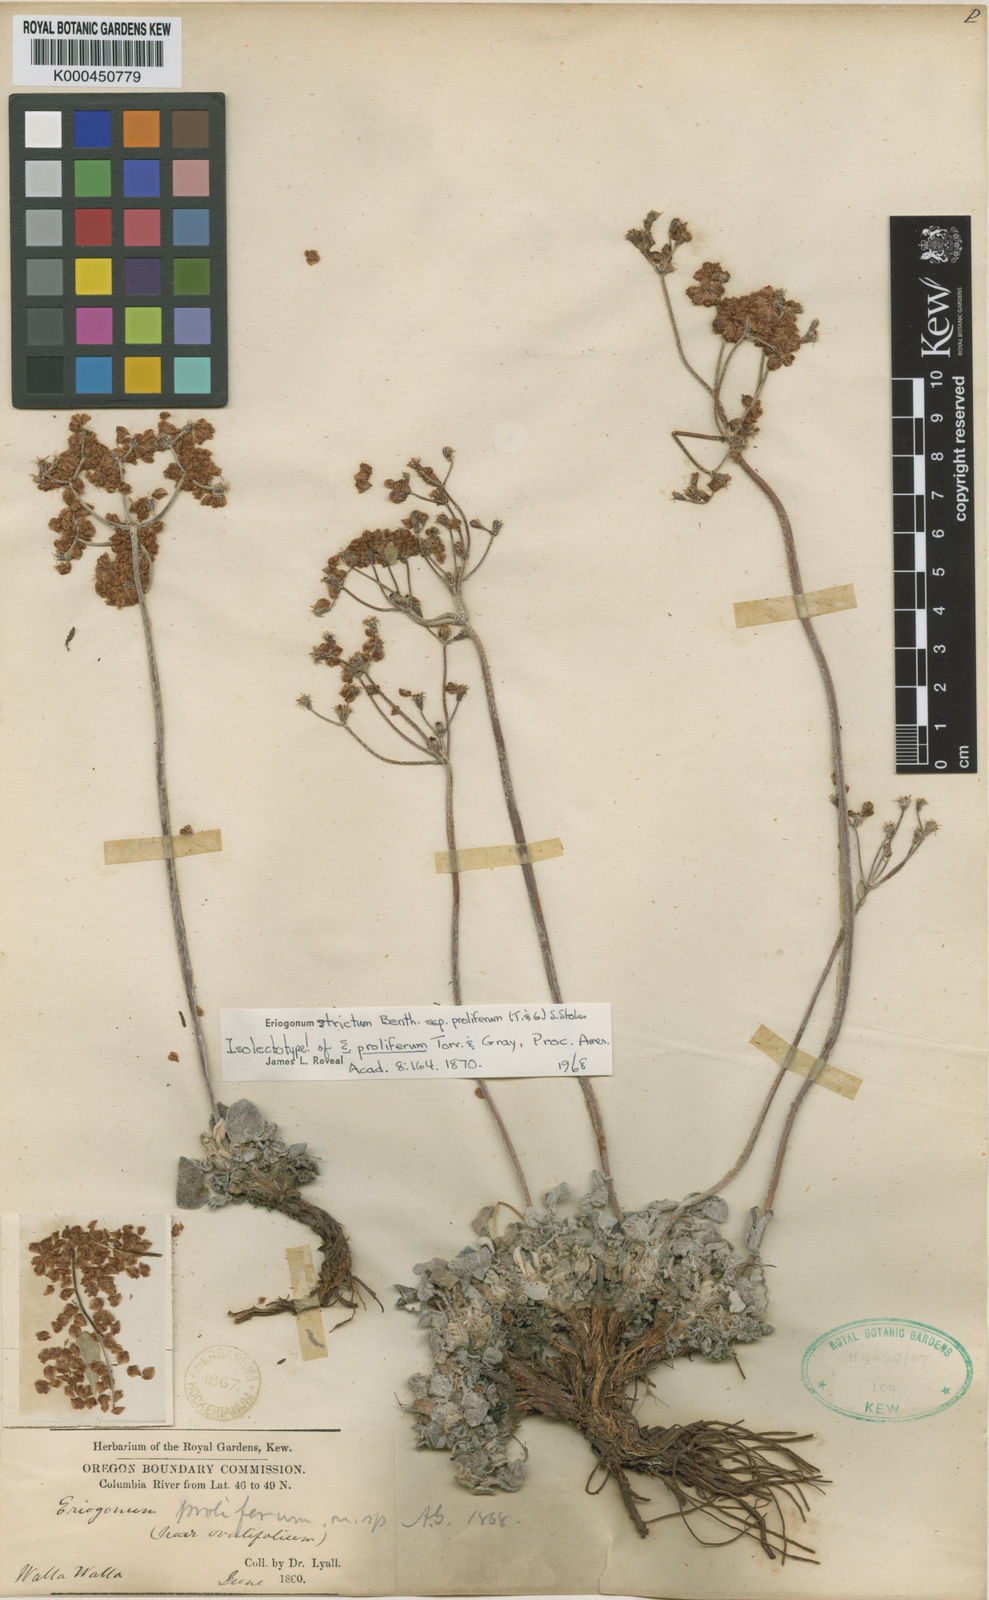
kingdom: Plantae
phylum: Tracheophyta
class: Magnoliopsida
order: Caryophyllales
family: Polygonaceae
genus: Eriogonum
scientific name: Eriogonum strictum
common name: Blue mountain buckwheat
